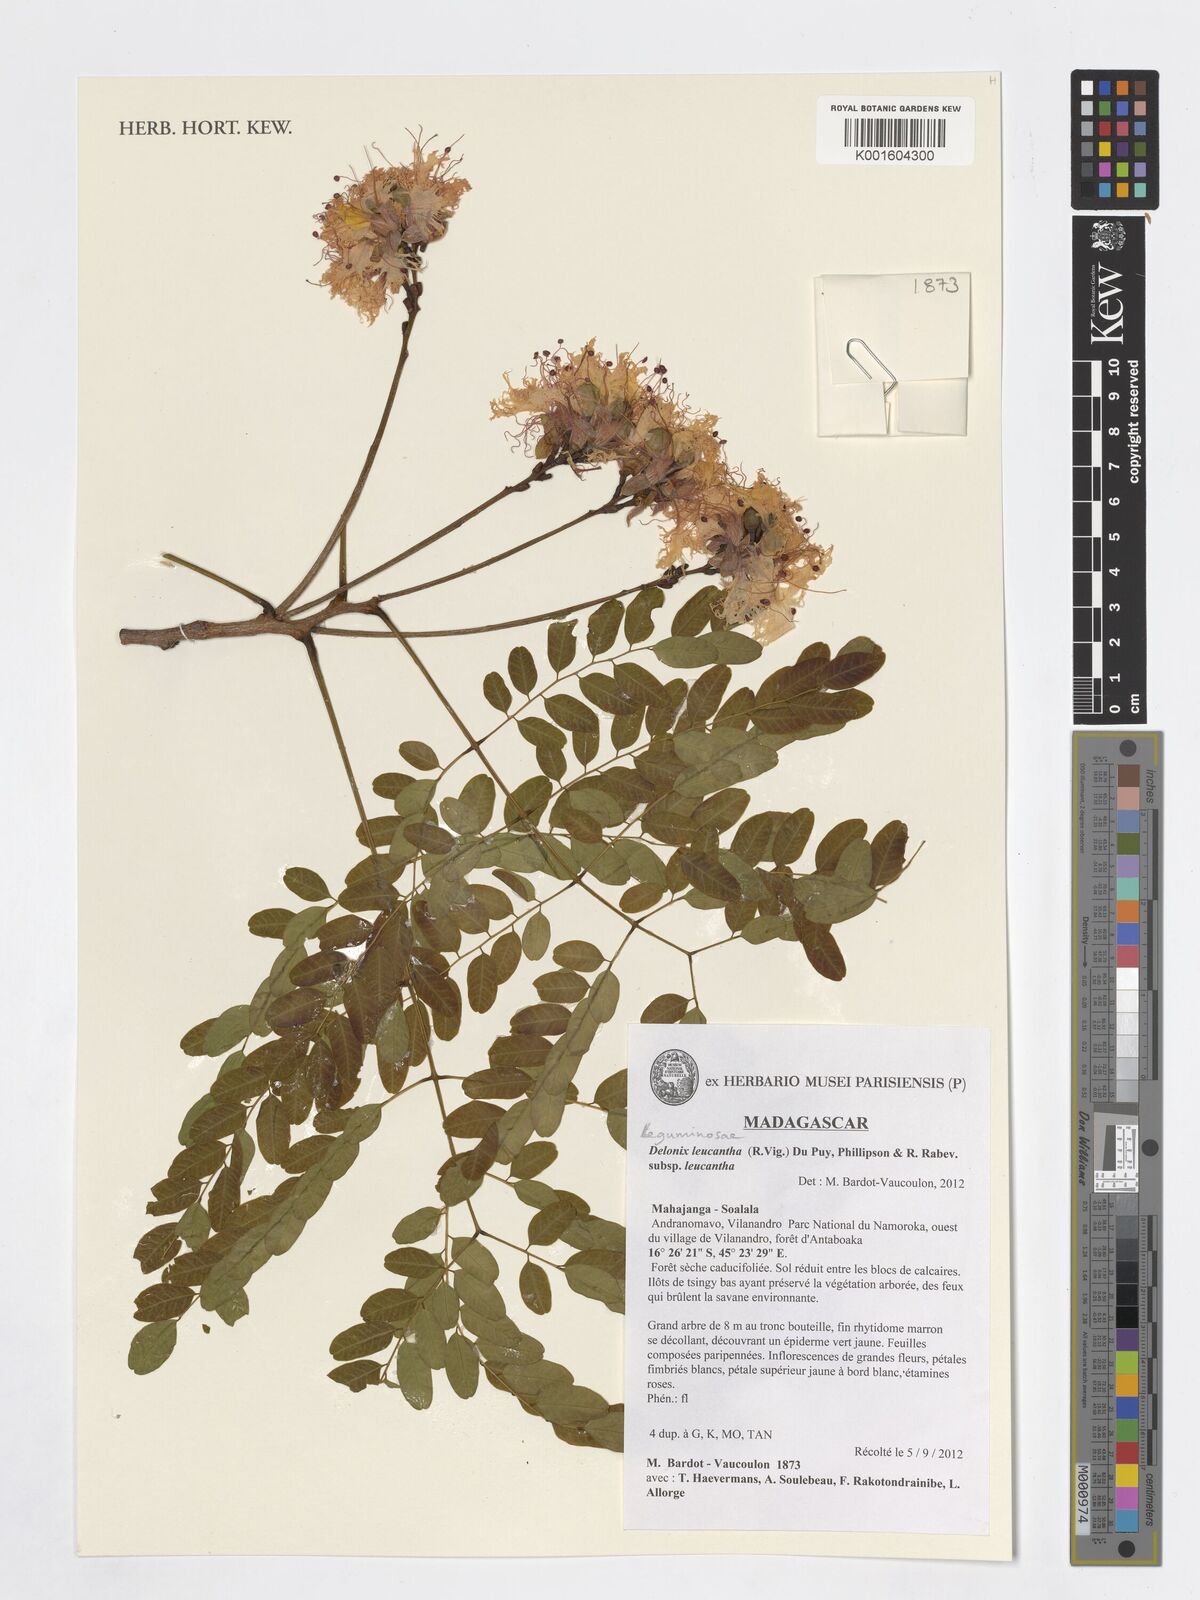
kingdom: Plantae
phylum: Tracheophyta
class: Magnoliopsida
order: Fabales
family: Fabaceae
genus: Delonix
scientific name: Delonix leucantha
